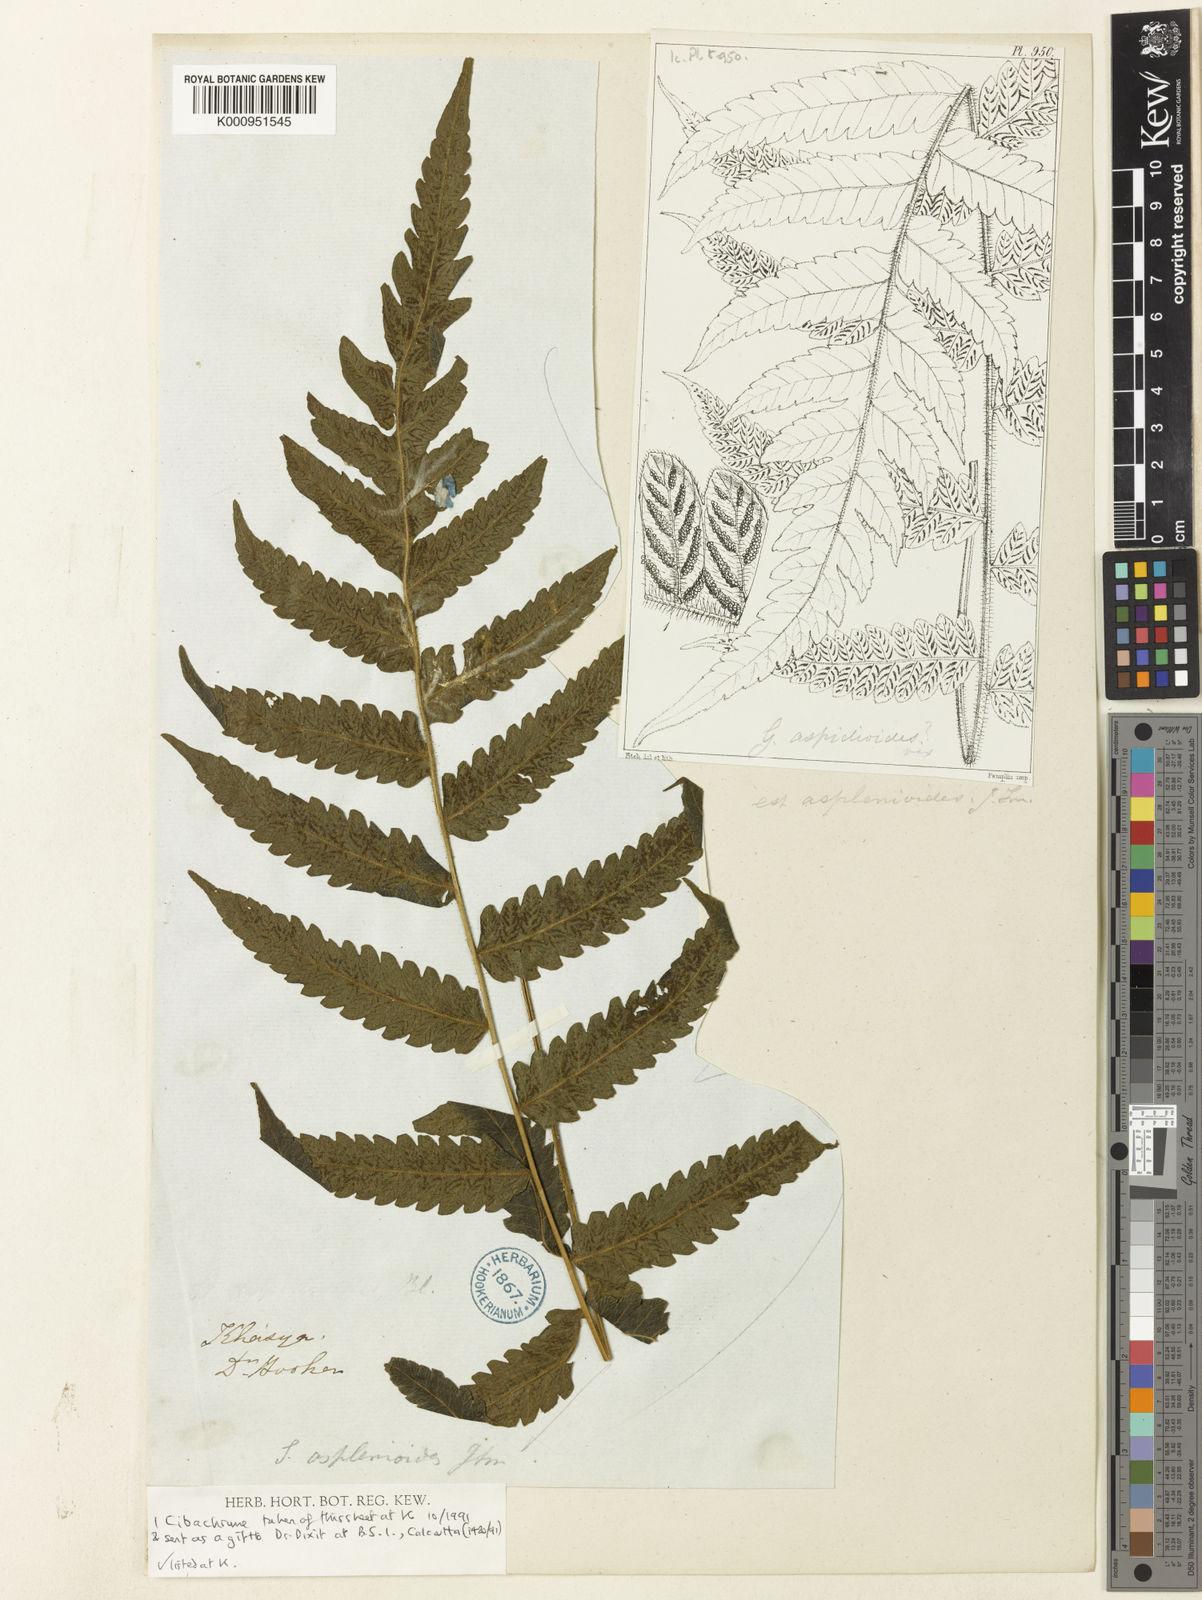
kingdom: Plantae
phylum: Tracheophyta
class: Polypodiopsida
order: Polypodiales
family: Thelypteridaceae
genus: Leptogramma
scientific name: Leptogramma stegnogrammopsis
